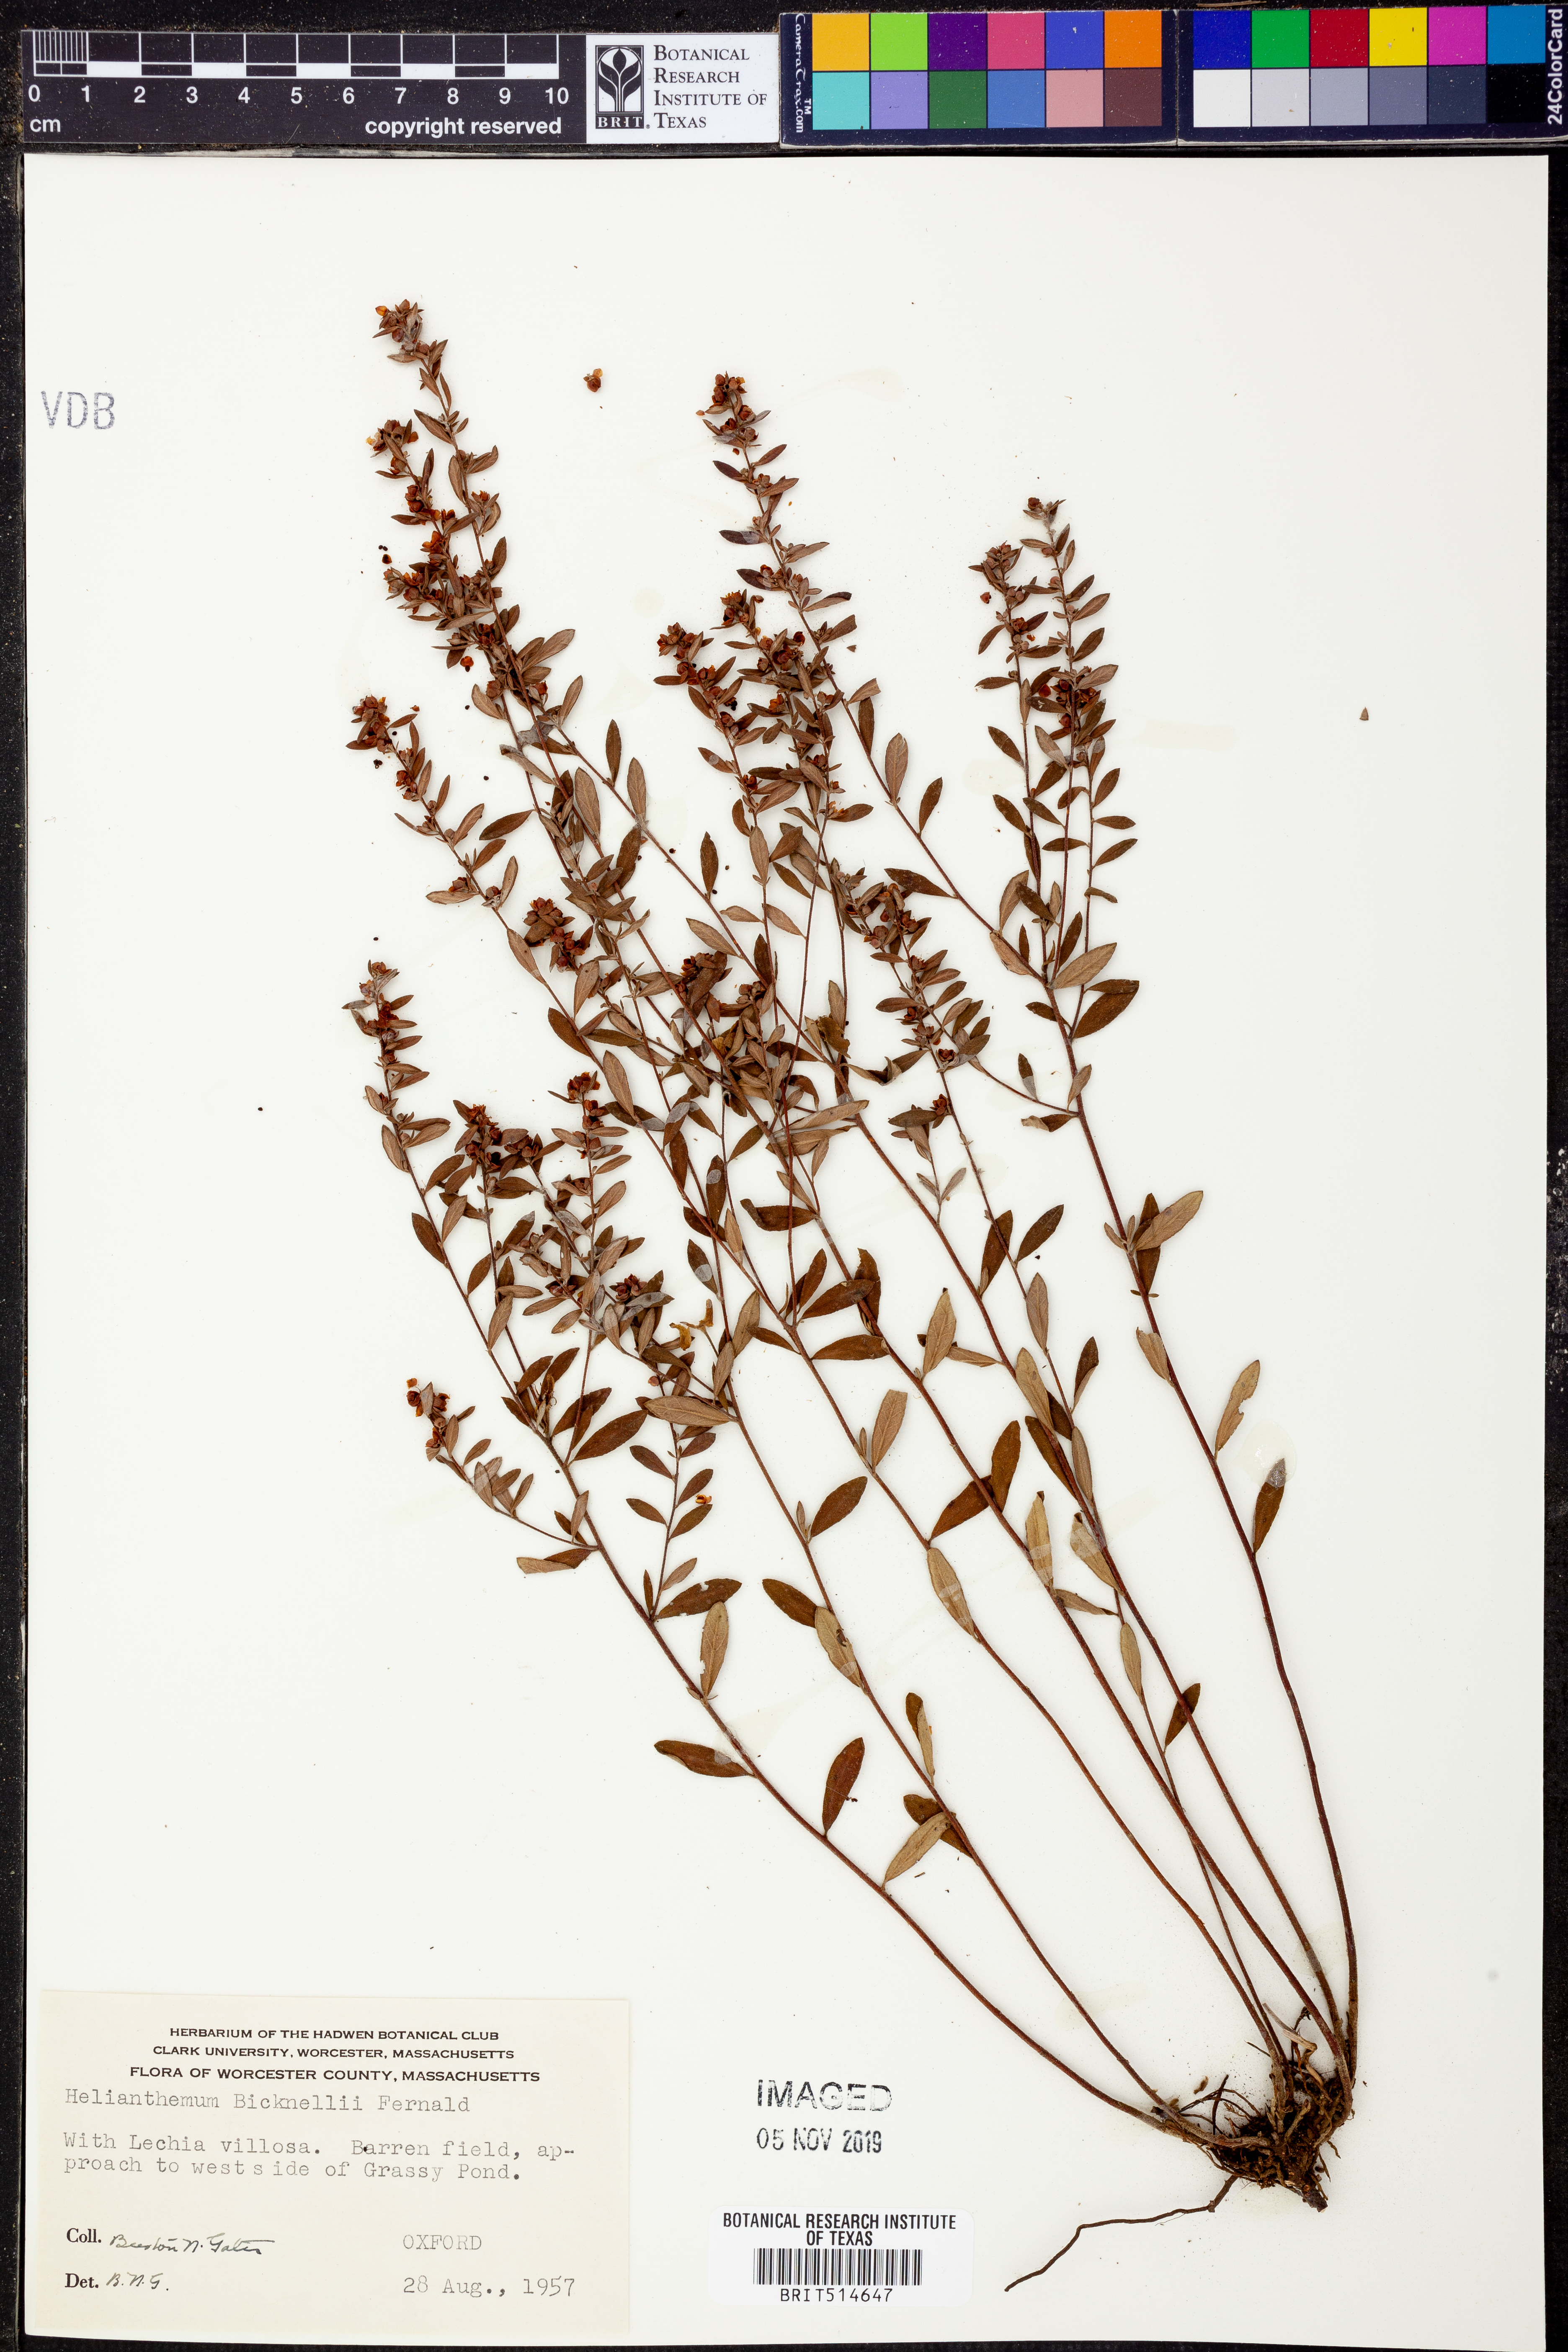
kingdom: Plantae
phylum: Tracheophyta
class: Magnoliopsida
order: Malvales
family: Cistaceae
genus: Crocanthemum
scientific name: Crocanthemum bicknellii
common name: Hoary frostweed
